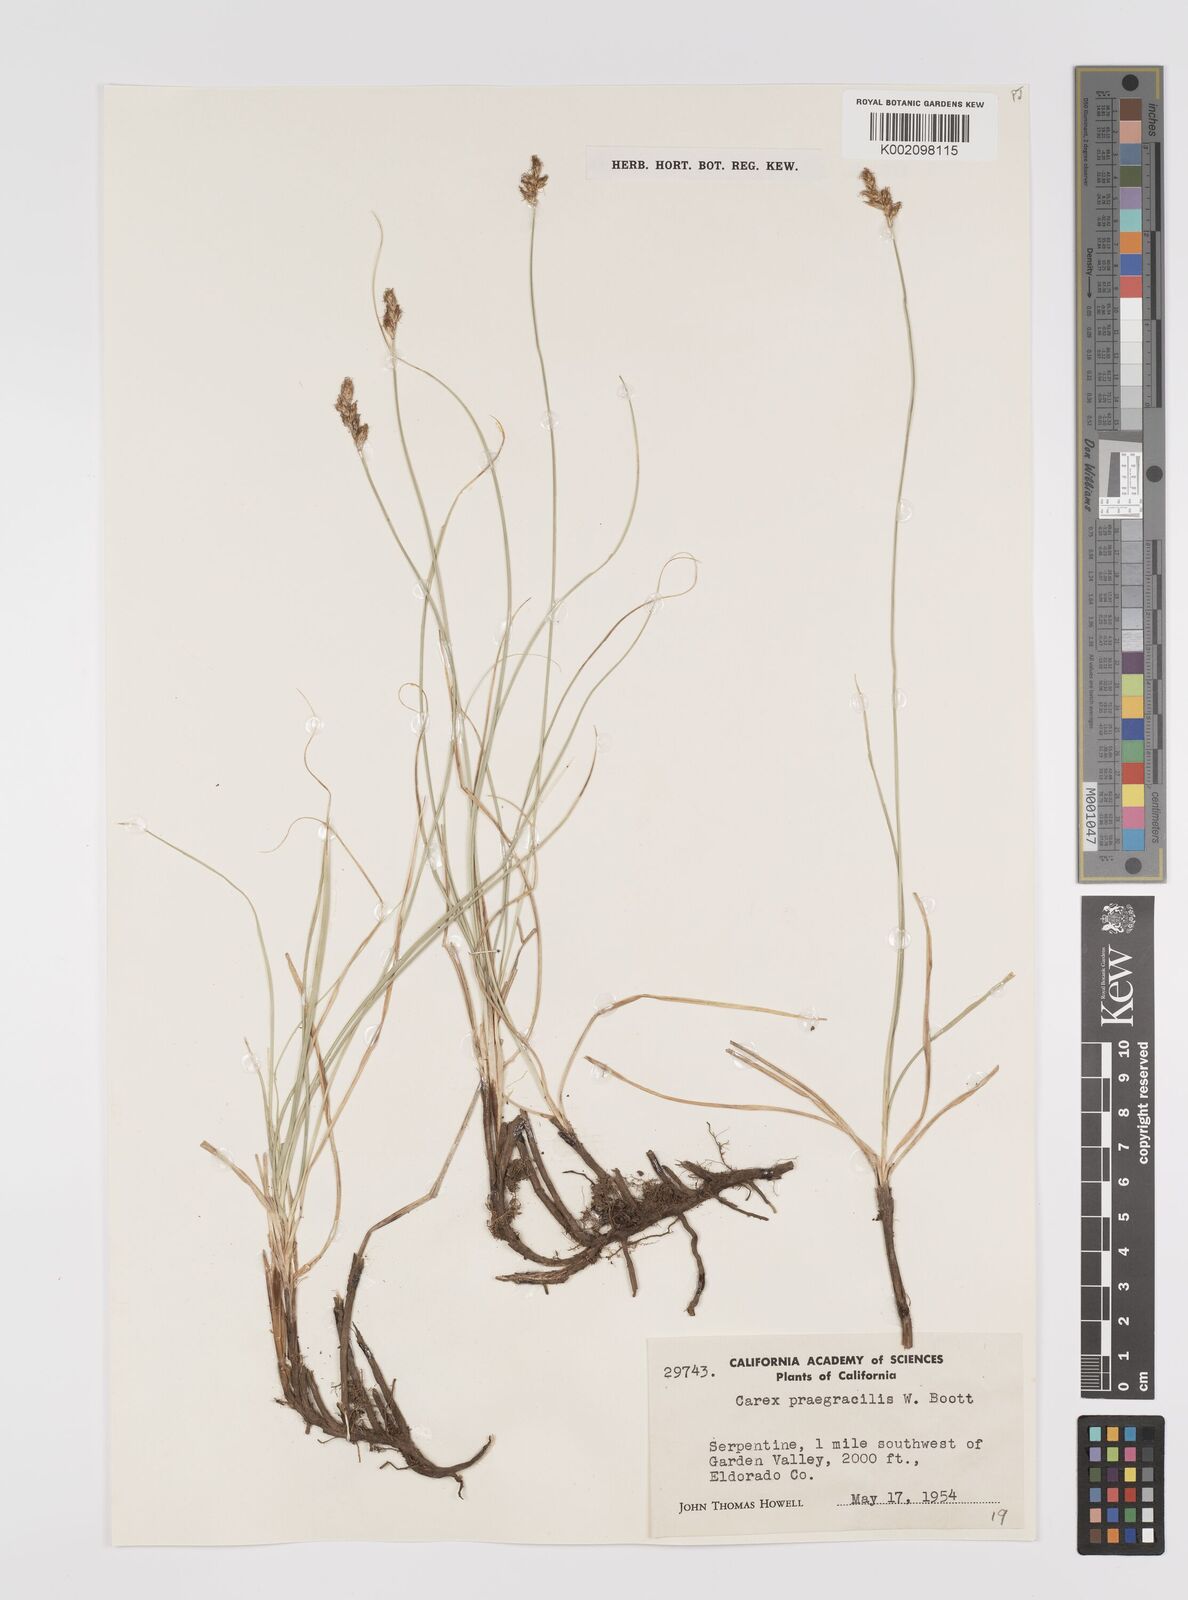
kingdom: Plantae
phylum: Tracheophyta
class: Liliopsida
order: Poales
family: Cyperaceae
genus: Carex
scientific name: Carex praegracilis
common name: Black creeper sedge
